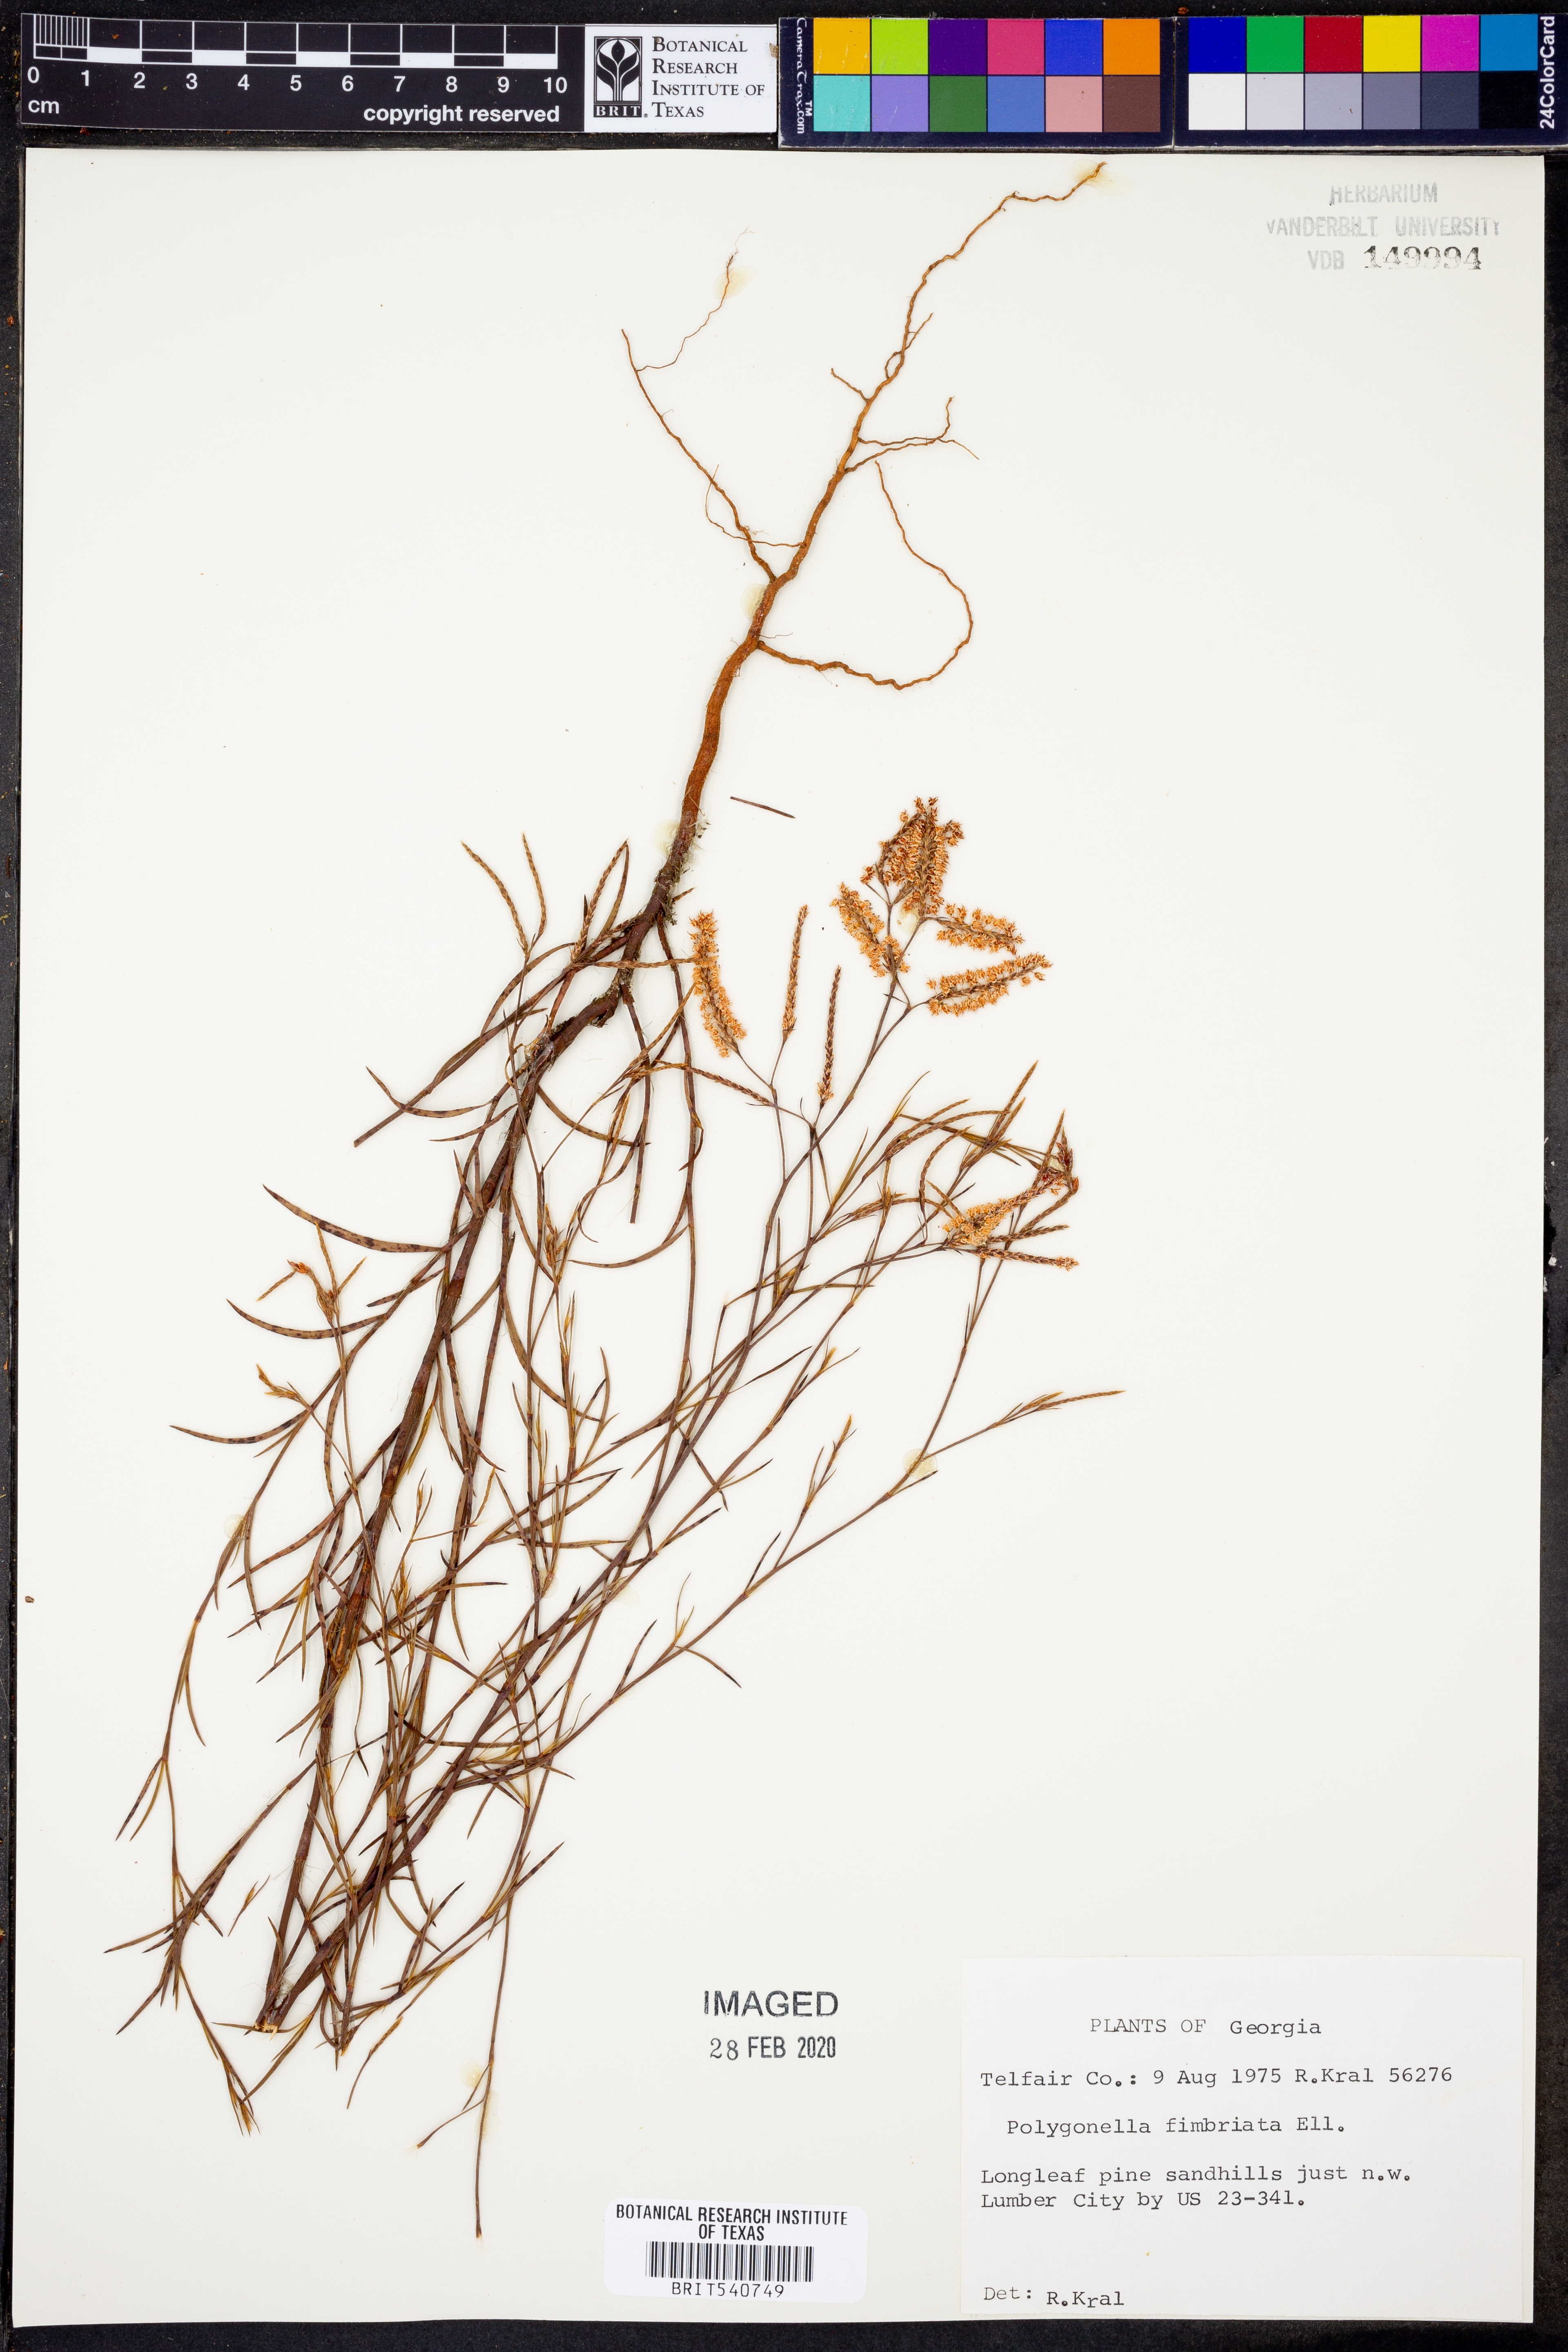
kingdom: Plantae
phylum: Tracheophyta
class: Magnoliopsida
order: Caryophyllales
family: Polygonaceae
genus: Polygonella
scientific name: Polygonella fimbriata
